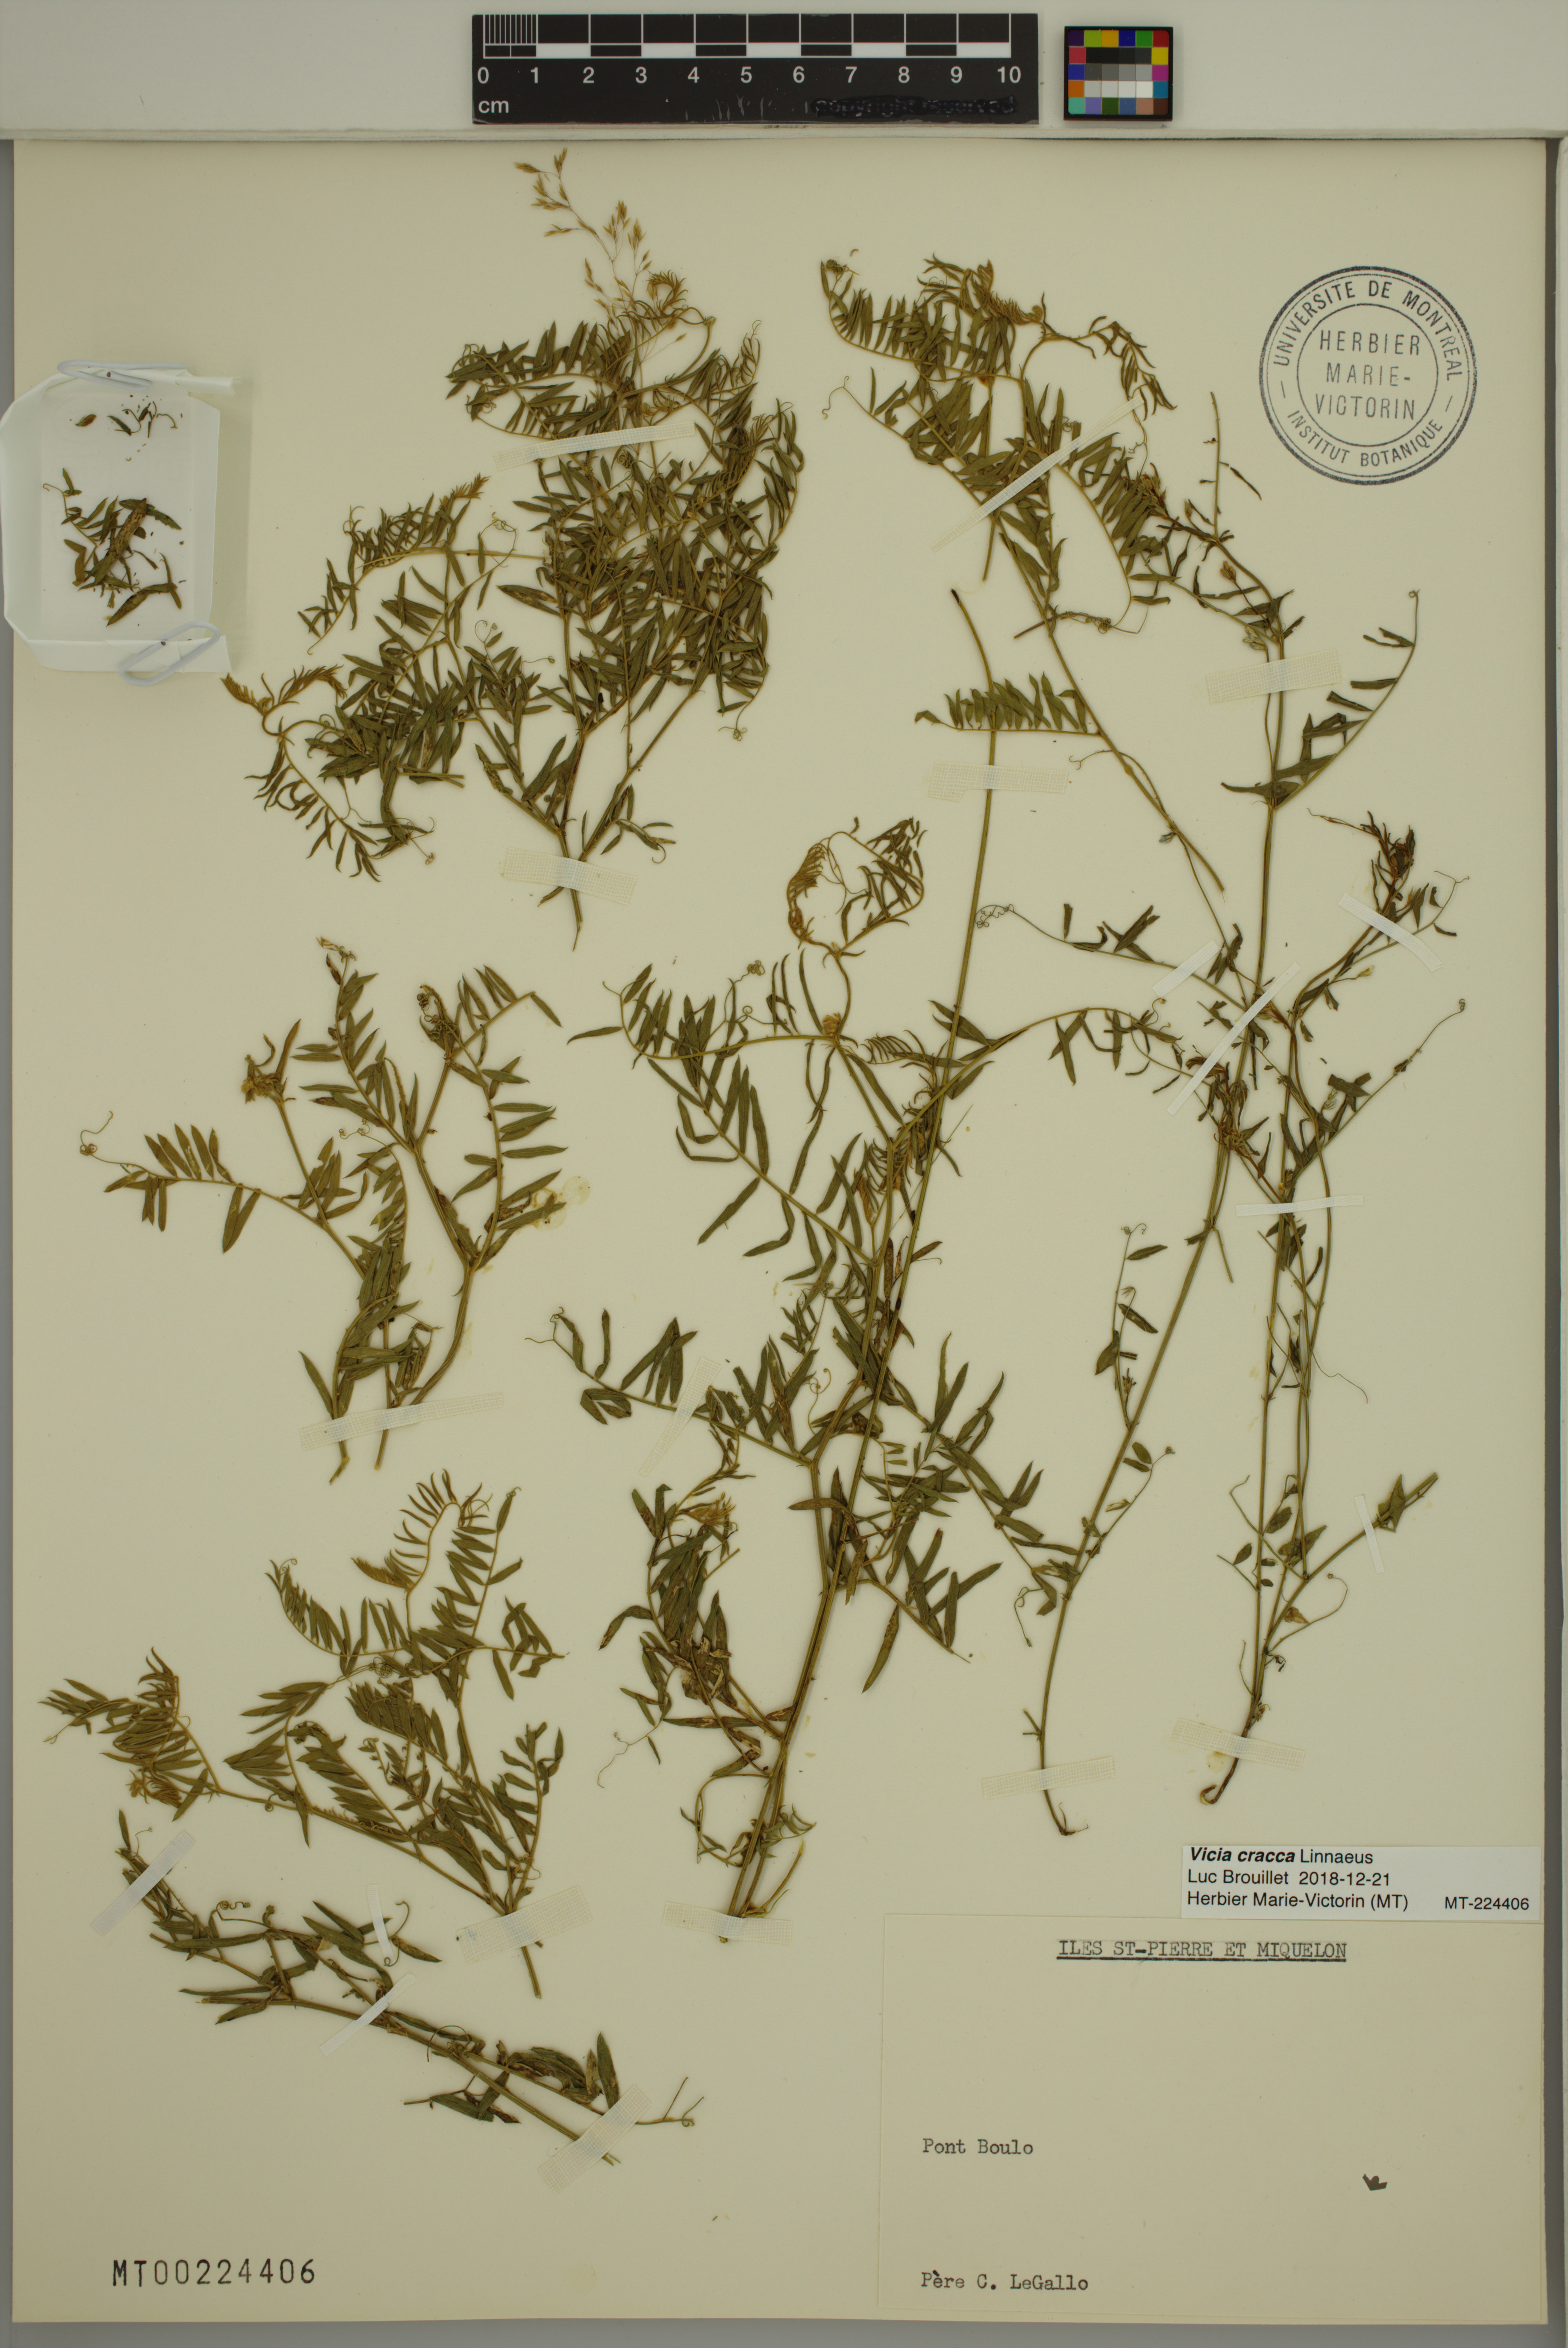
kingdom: Plantae
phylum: Tracheophyta
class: Magnoliopsida
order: Fabales
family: Fabaceae
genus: Vicia
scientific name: Vicia cracca
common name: Bird vetch
